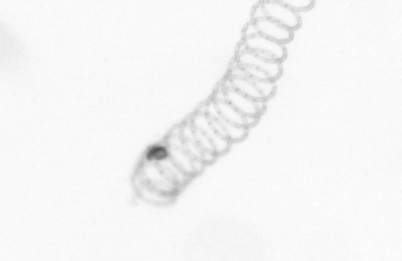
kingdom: Chromista
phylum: Ochrophyta
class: Bacillariophyceae
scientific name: Bacillariophyceae
